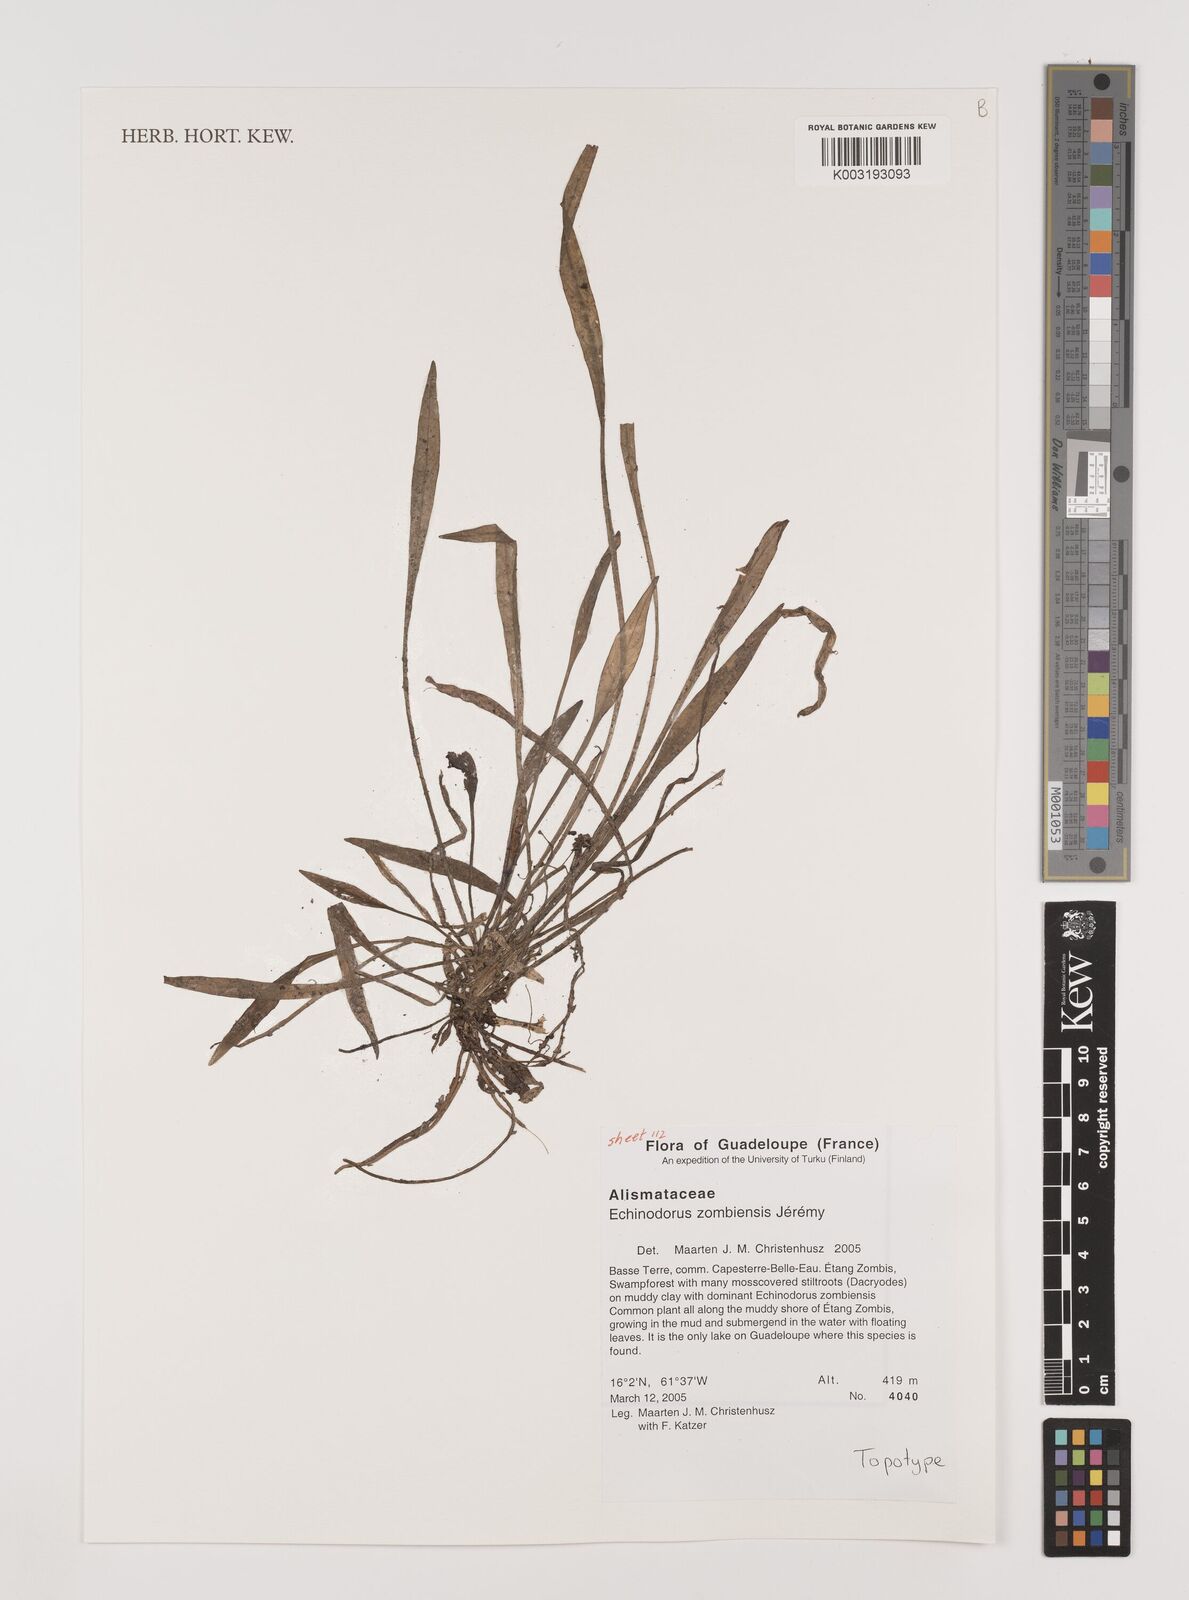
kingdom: Plantae
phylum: Tracheophyta
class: Liliopsida
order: Alismatales
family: Alismataceae
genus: Helanthium
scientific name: Helanthium zombiense
